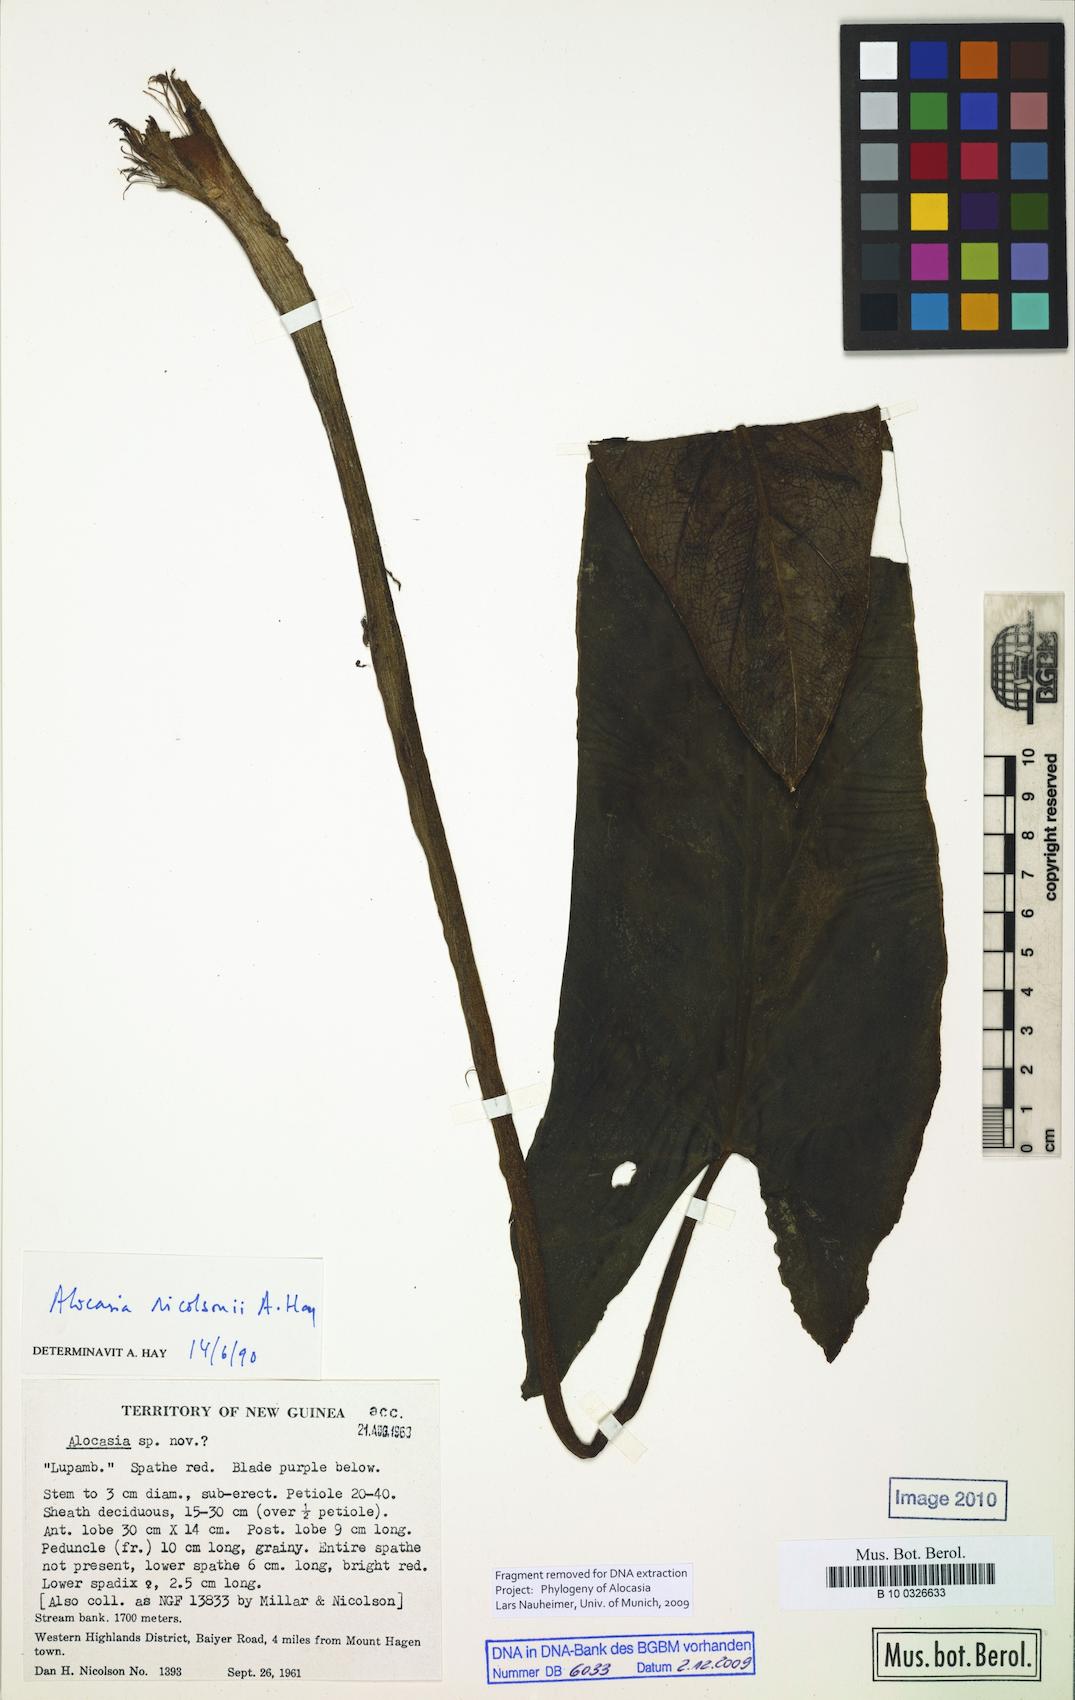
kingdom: Plantae
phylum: Tracheophyta
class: Liliopsida
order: Alismatales
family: Araceae
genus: Alocasia
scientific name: Alocasia nicolsonii
